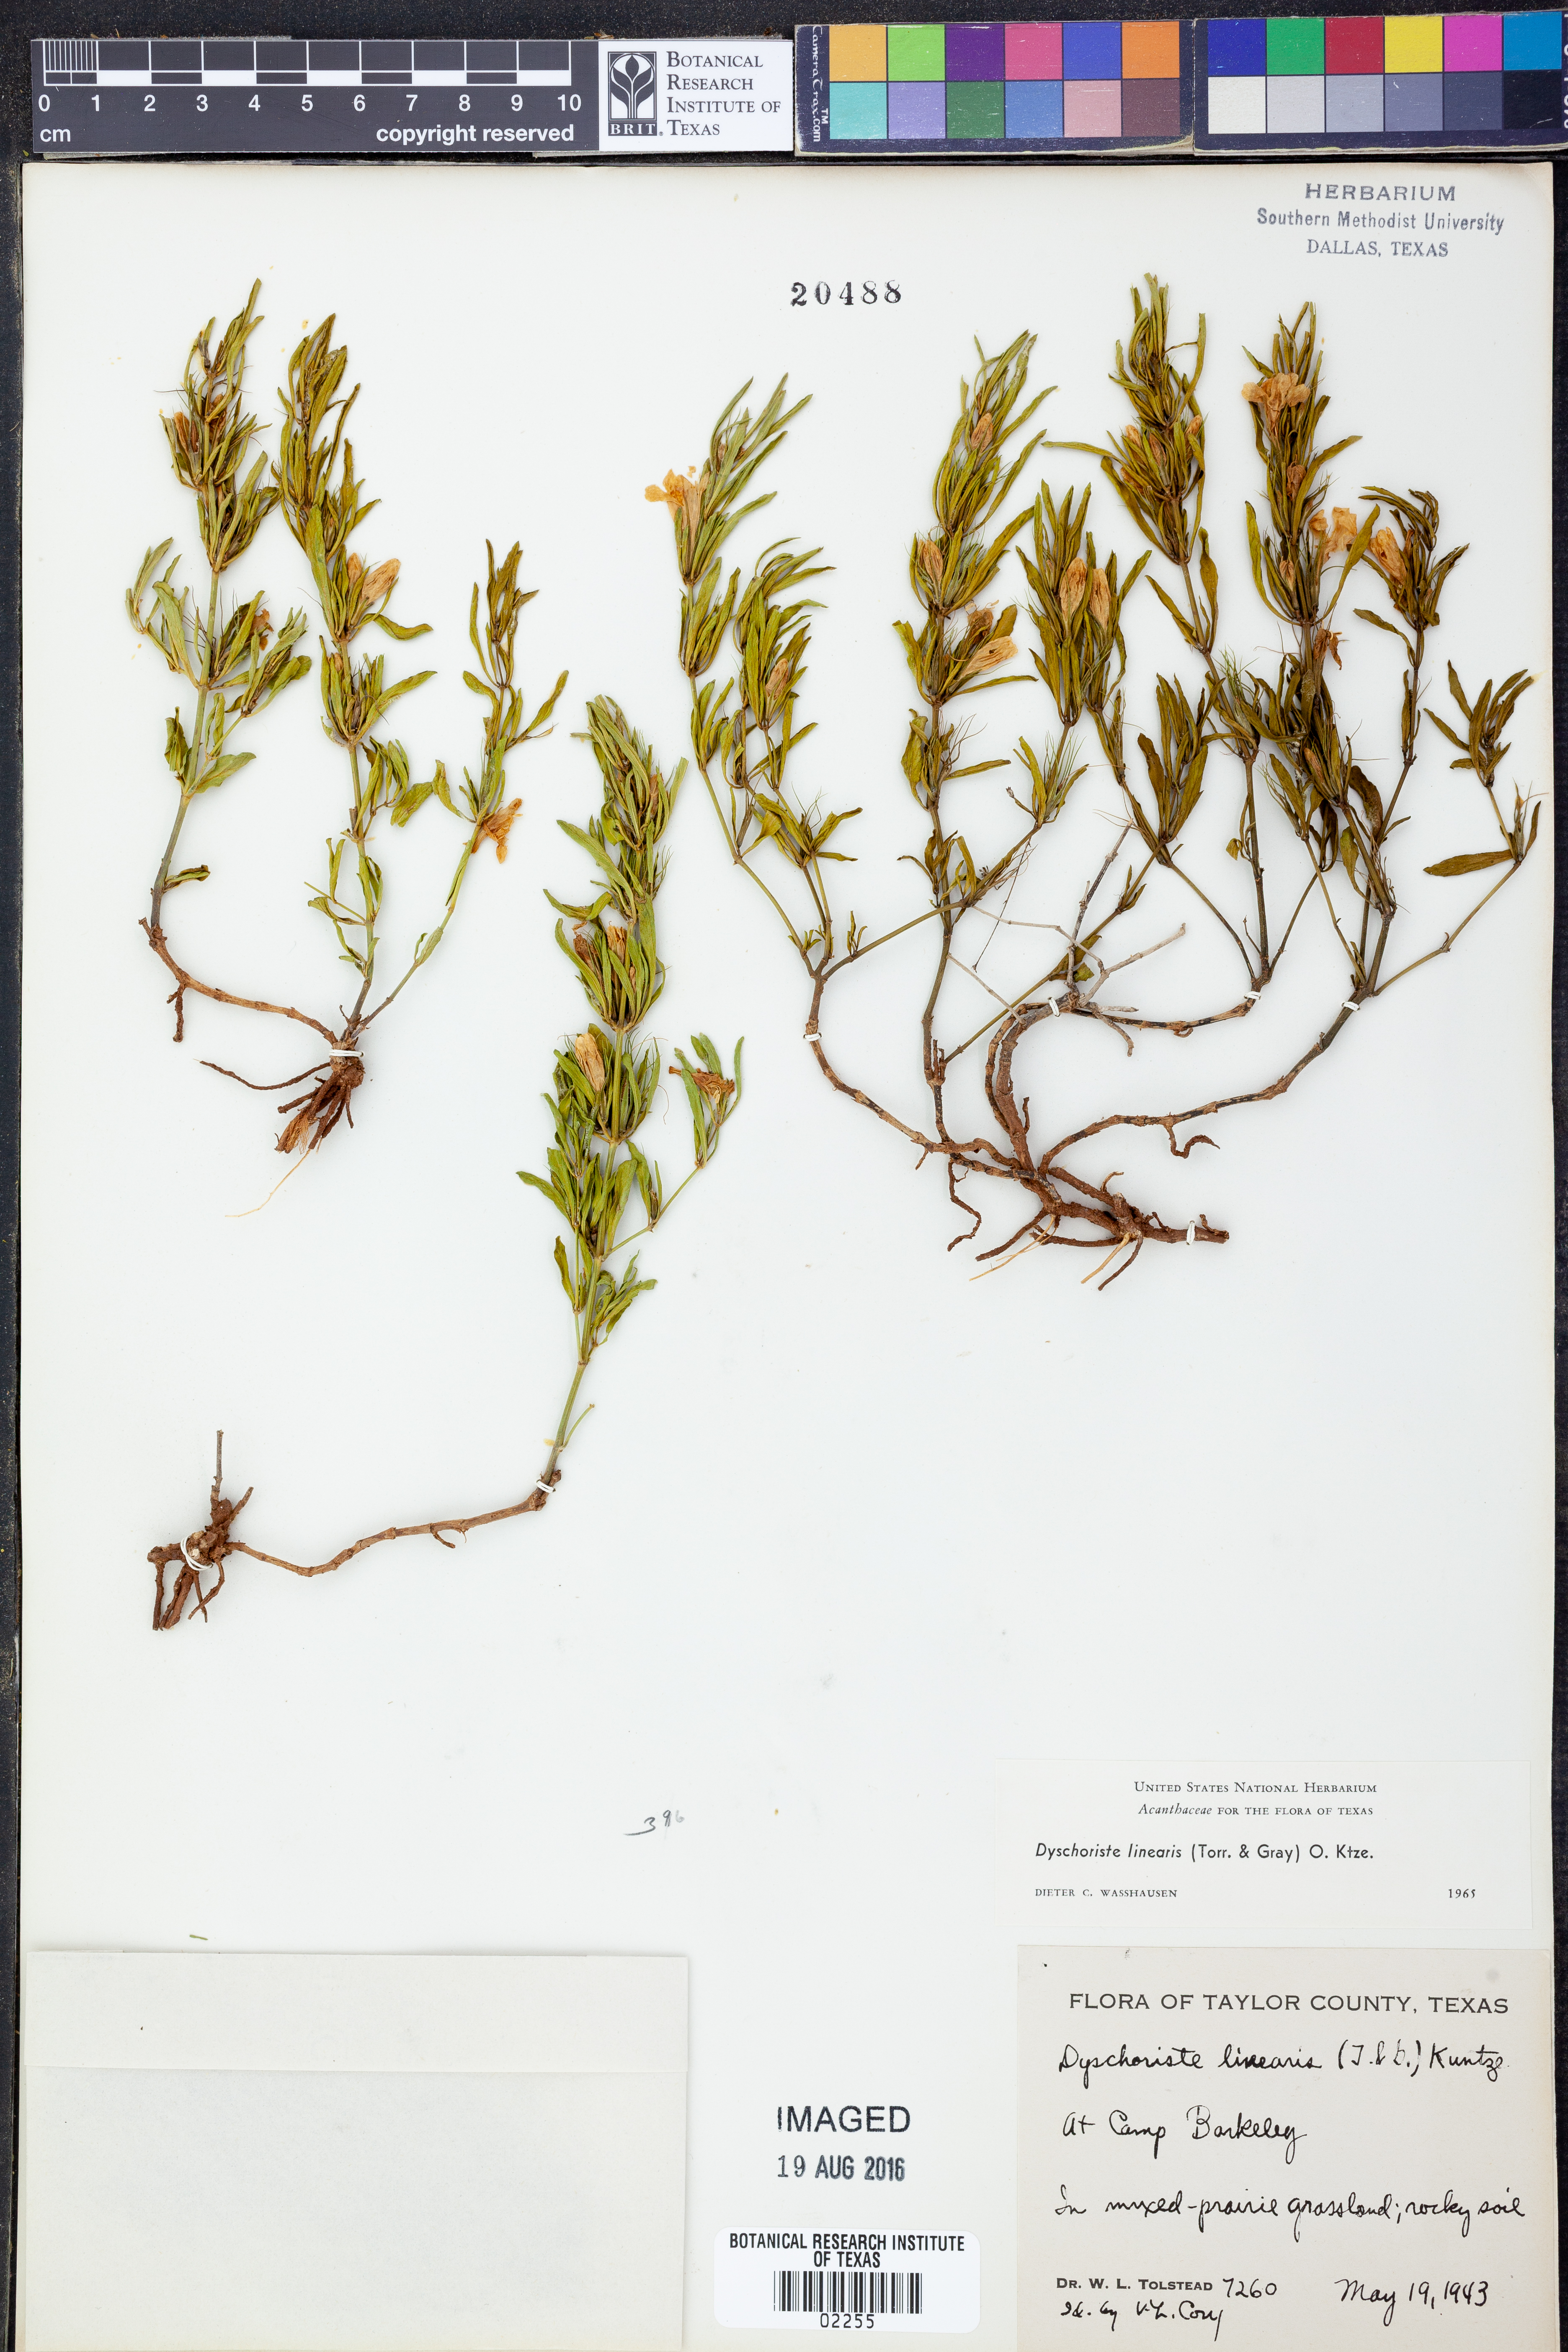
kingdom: Plantae
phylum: Tracheophyta
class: Magnoliopsida
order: Lamiales
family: Acanthaceae
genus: Dyschoriste
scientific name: Dyschoriste linearis
